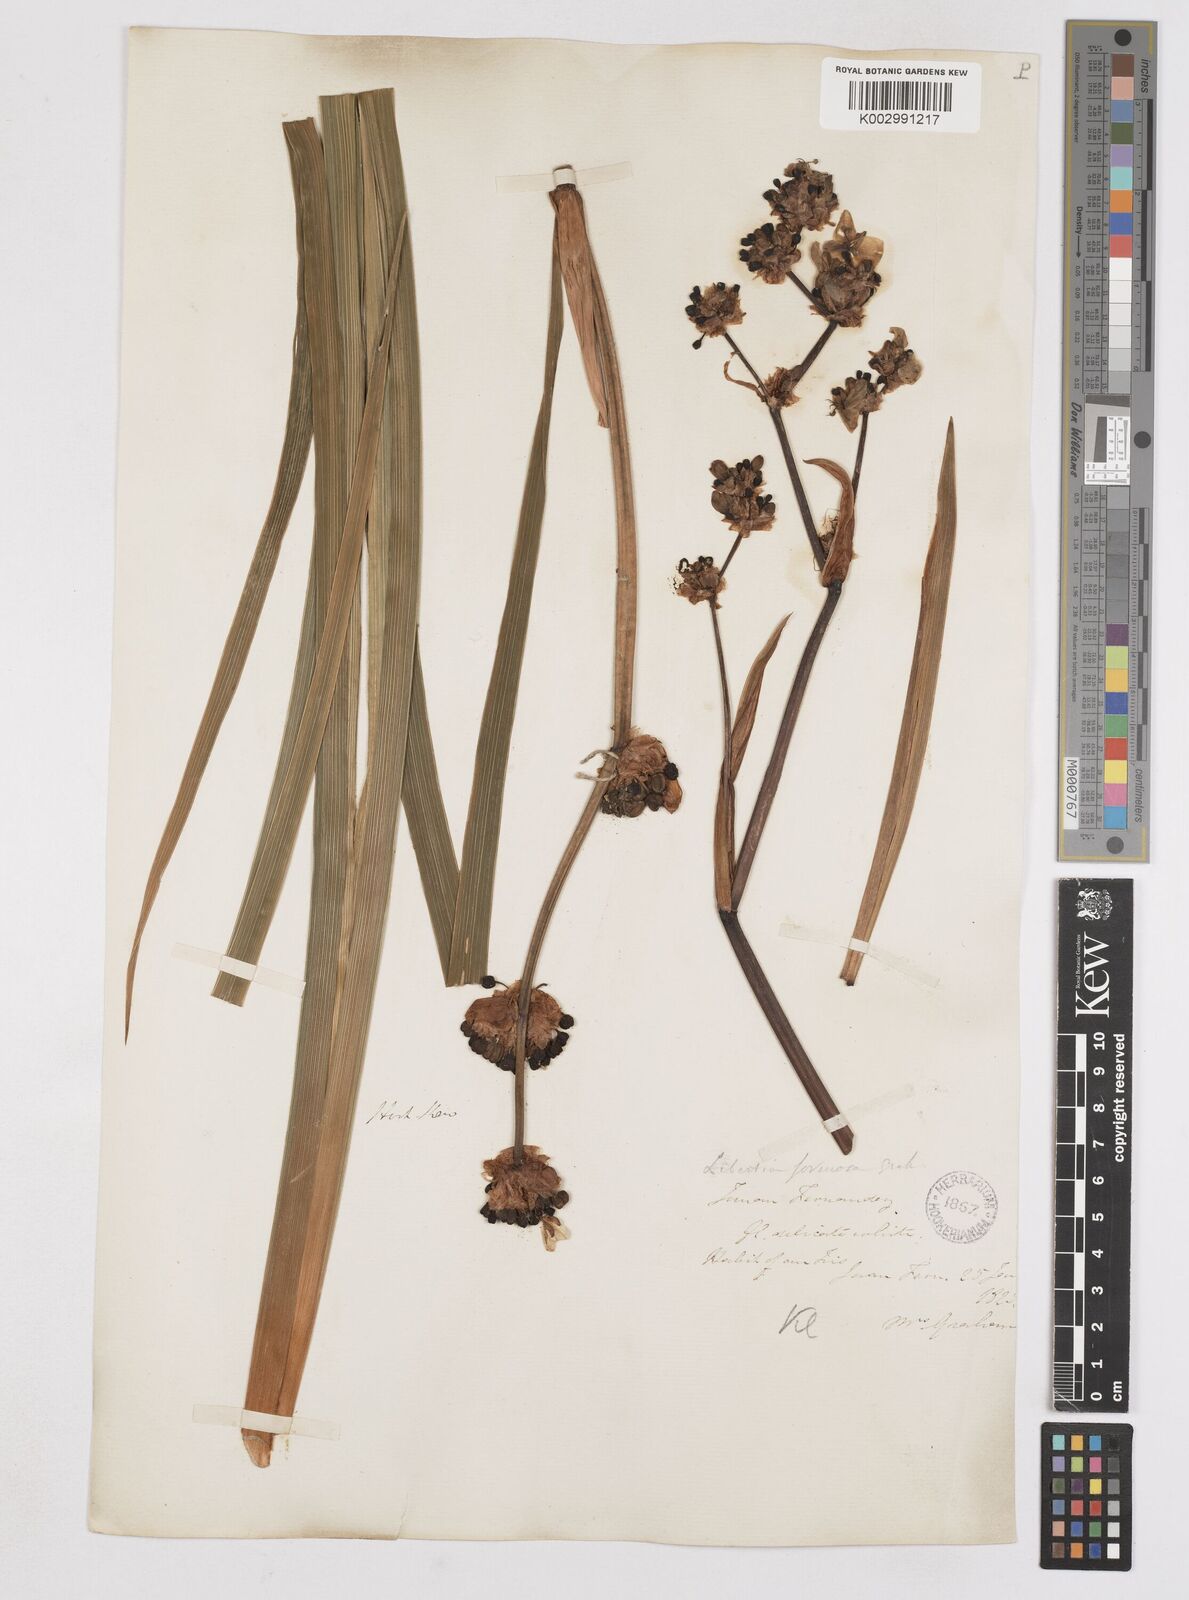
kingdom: Plantae
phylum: Tracheophyta
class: Liliopsida
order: Asparagales
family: Iridaceae
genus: Libertia
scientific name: Libertia chilensis
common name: Satin flower
